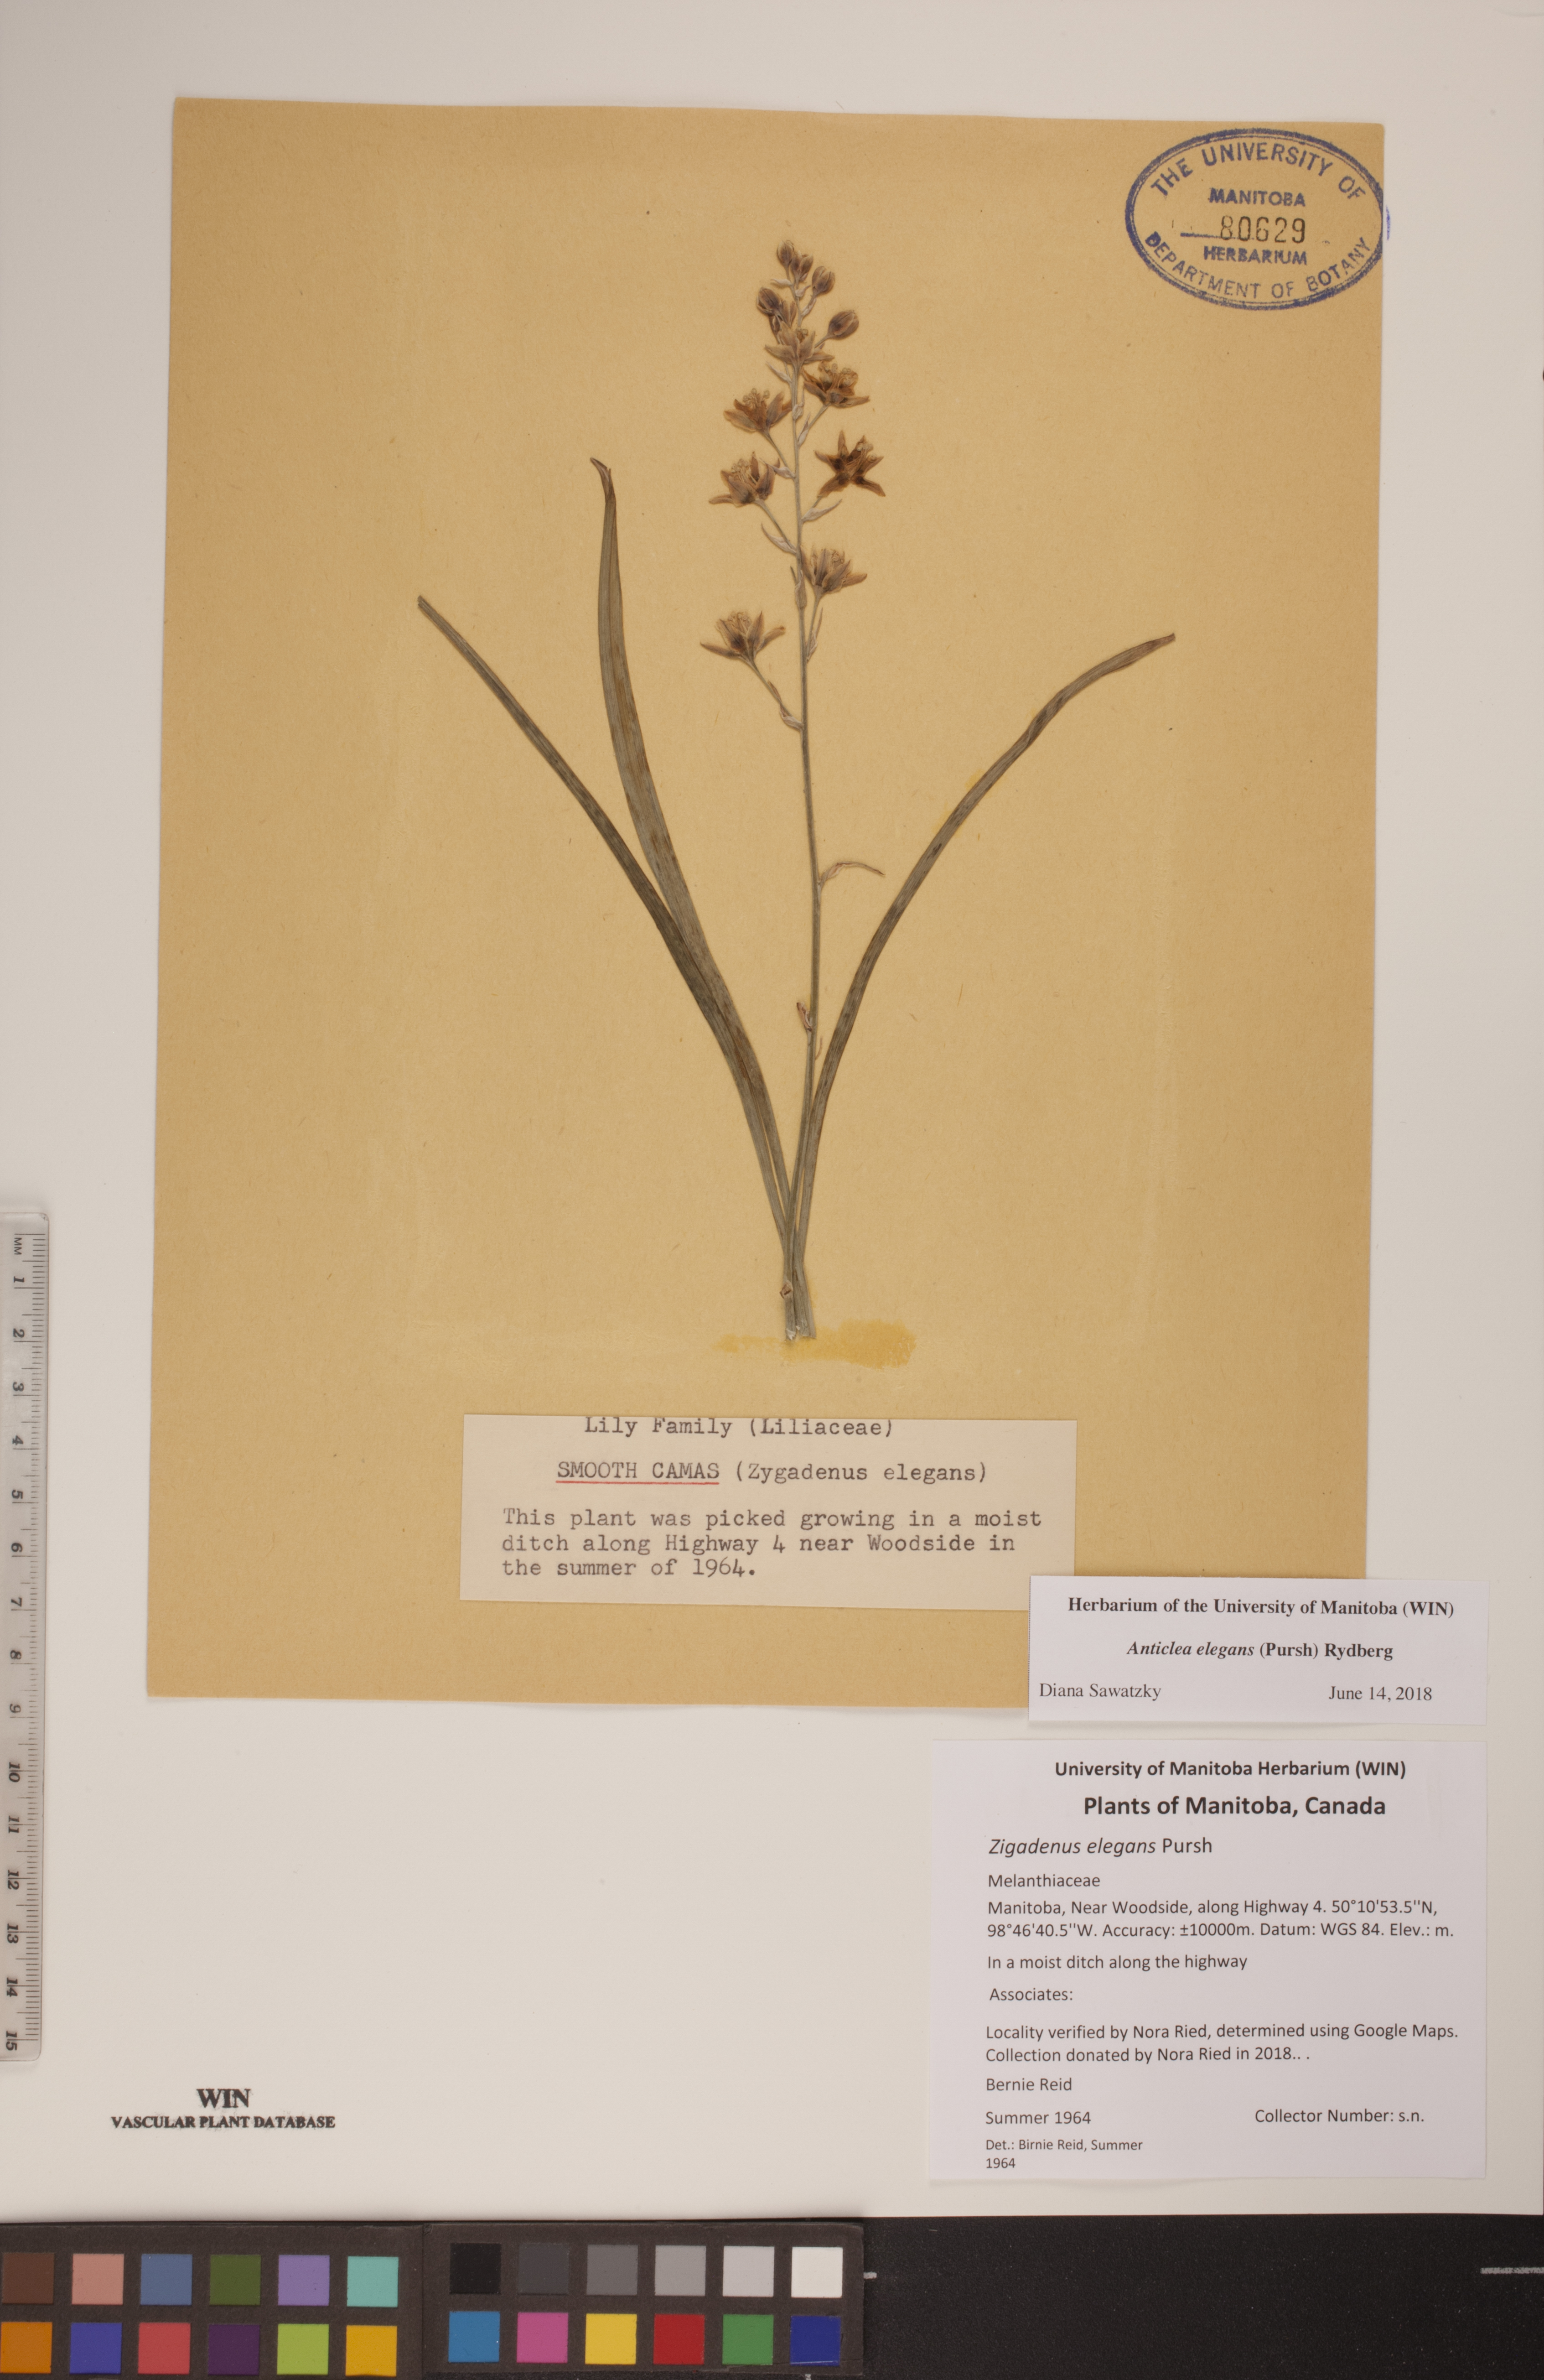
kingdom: Plantae
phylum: Tracheophyta
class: Liliopsida
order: Liliales
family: Melanthiaceae
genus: Anticlea
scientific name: Anticlea elegans
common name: Mountain death camas
